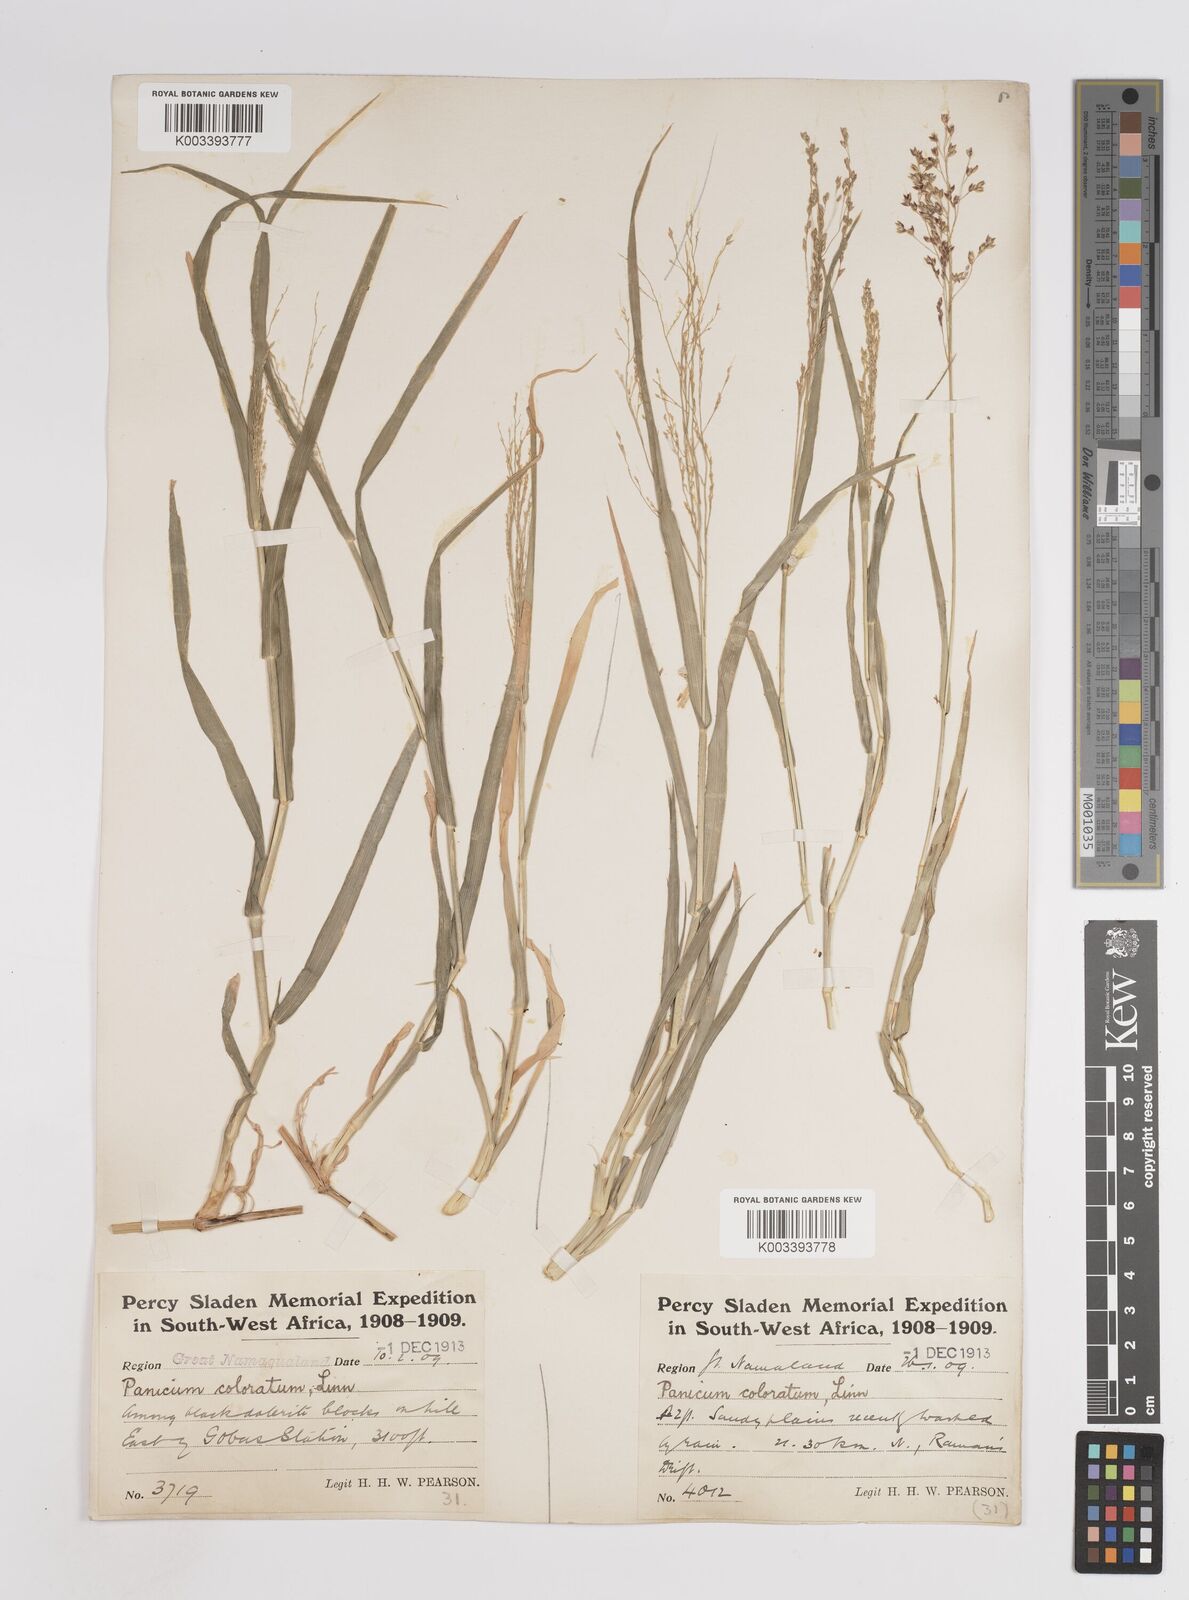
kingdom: Plantae
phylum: Tracheophyta
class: Liliopsida
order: Poales
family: Poaceae
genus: Panicum
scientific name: Panicum arbusculum
